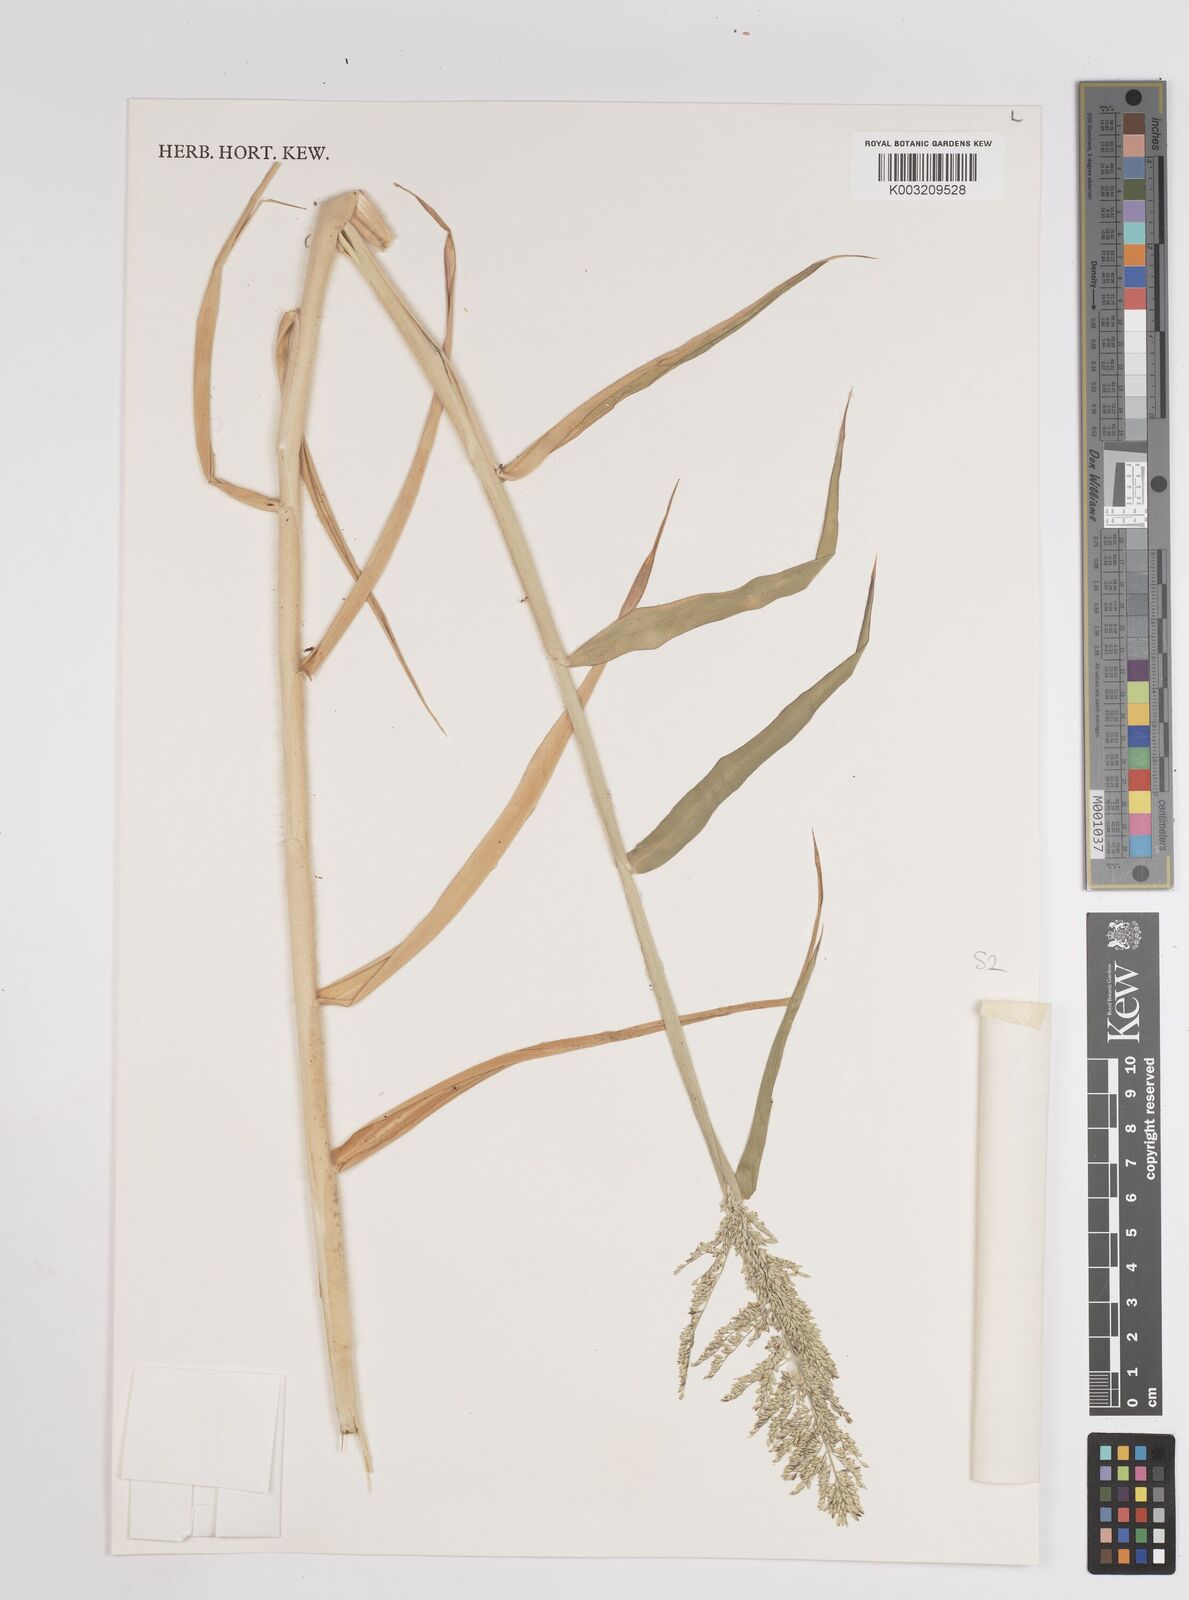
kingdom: Plantae
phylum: Tracheophyta
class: Liliopsida
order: Poales
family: Poaceae
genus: Panicum
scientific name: Panicum coloratum
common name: Kleingrass
